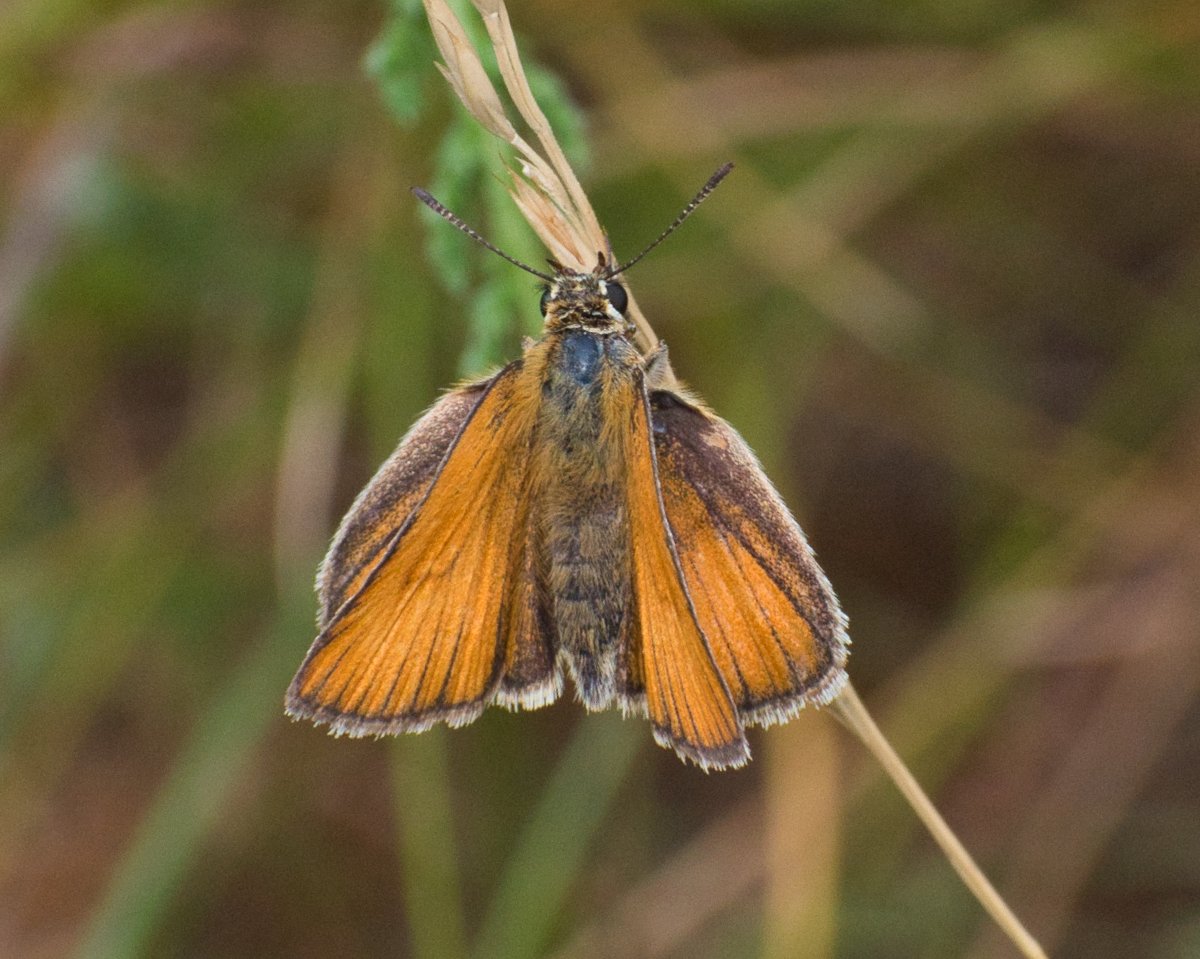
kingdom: Animalia
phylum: Arthropoda
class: Insecta
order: Lepidoptera
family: Hesperiidae
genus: Thymelicus
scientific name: Thymelicus lineola
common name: European Skipper
